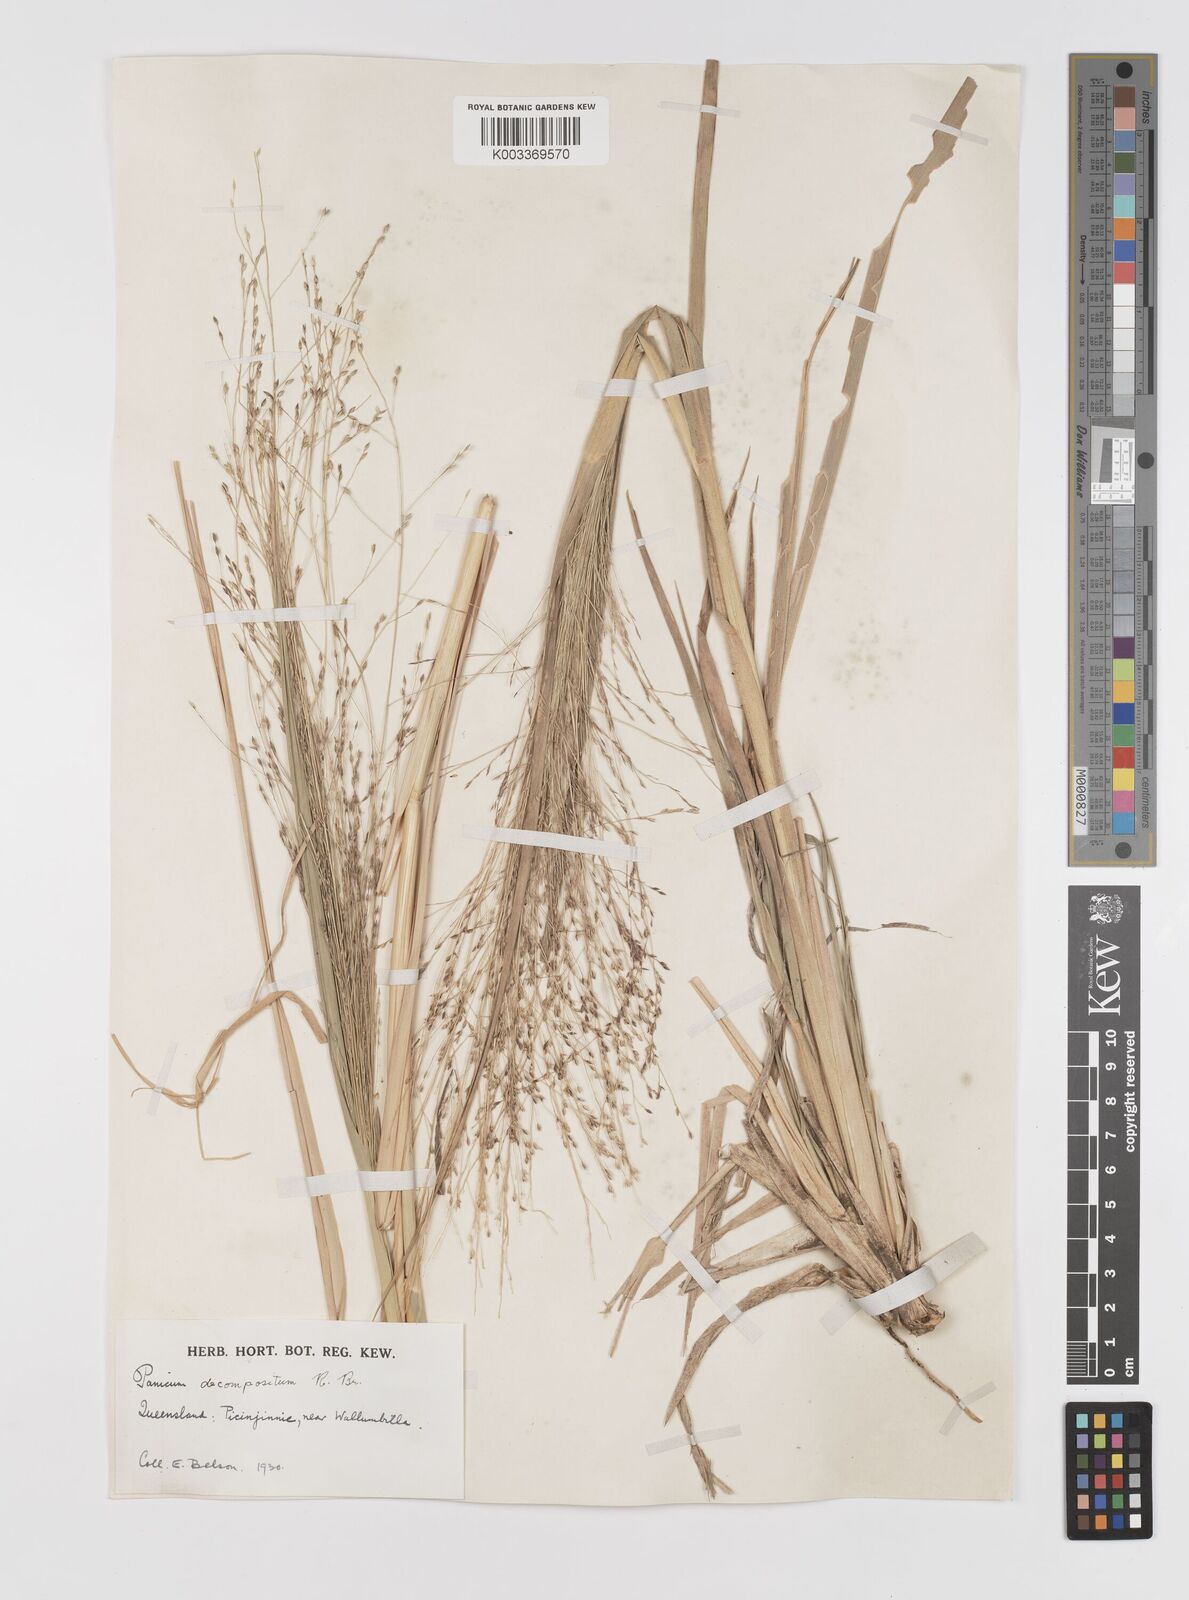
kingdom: Plantae
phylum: Tracheophyta
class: Liliopsida
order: Poales
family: Poaceae
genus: Panicum
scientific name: Panicum decompositum
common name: Australian millet
